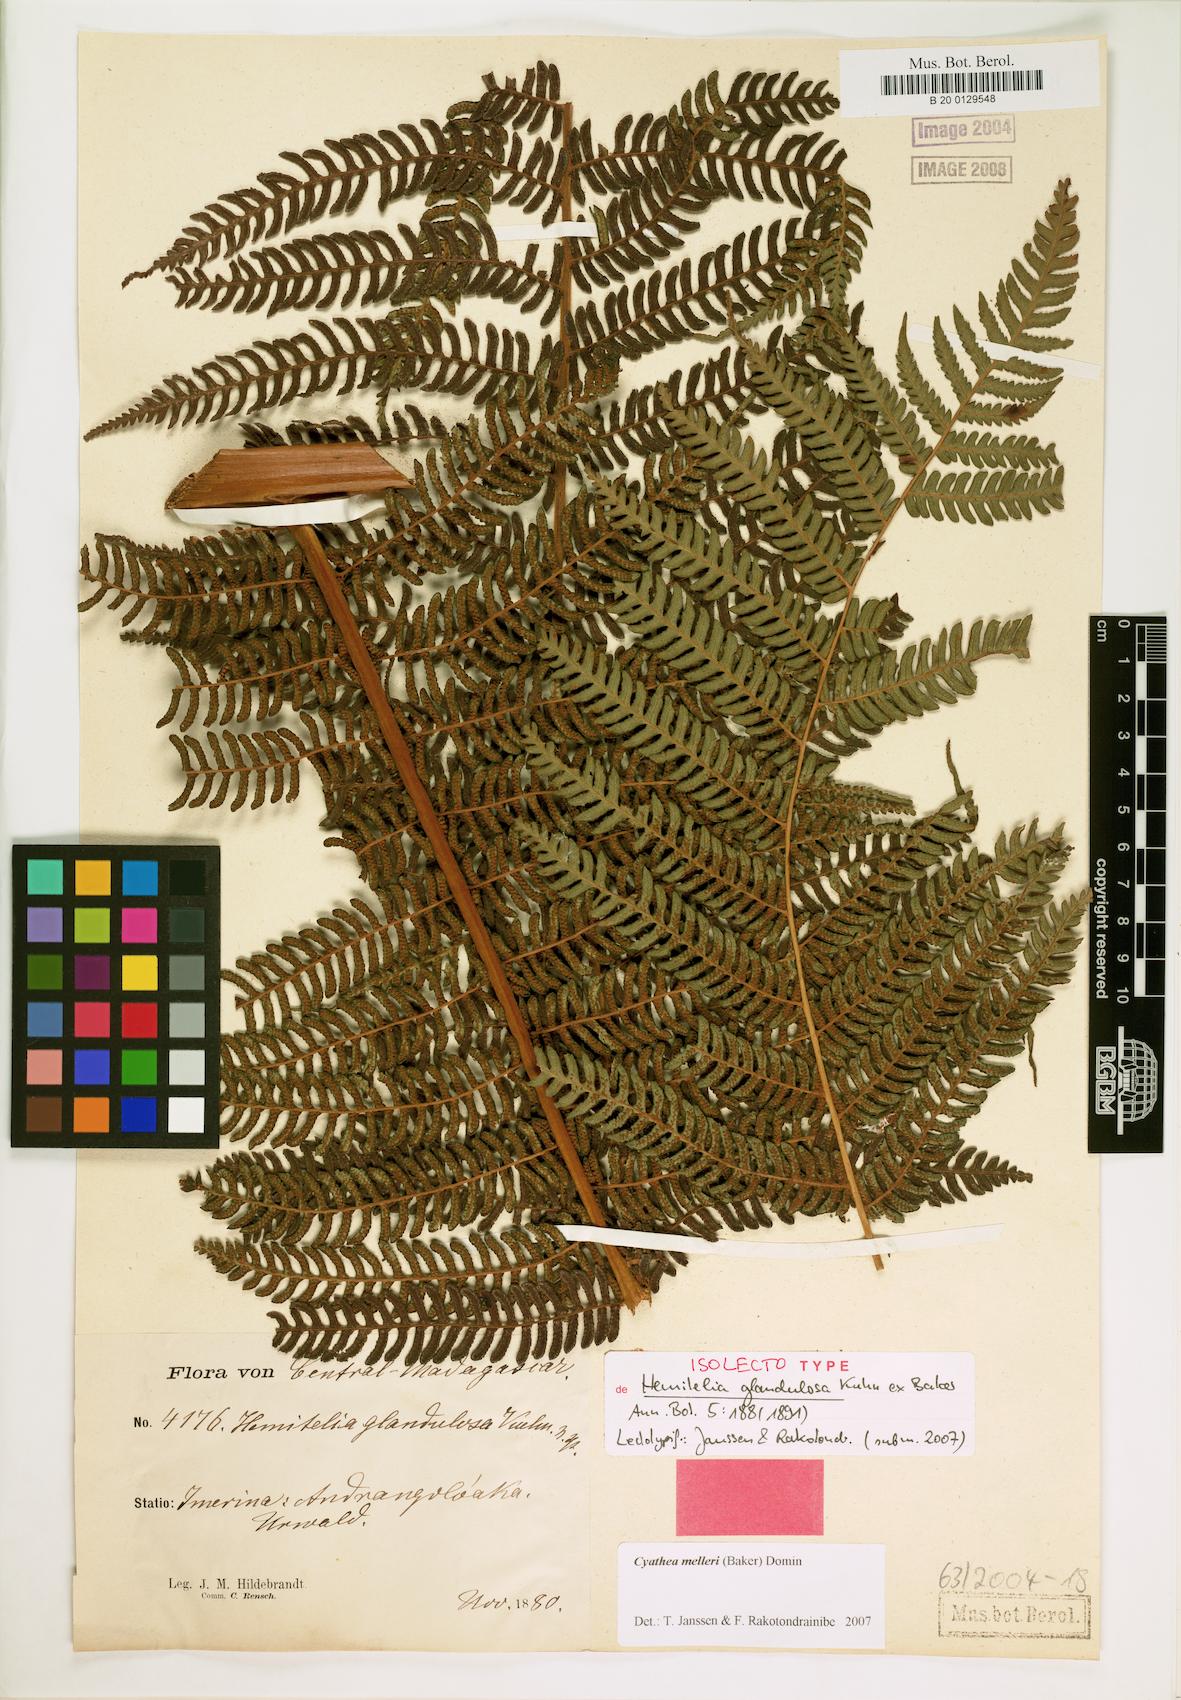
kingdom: Plantae
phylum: Tracheophyta
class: Polypodiopsida
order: Cyatheales
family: Cyatheaceae
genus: Alsophila
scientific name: Alsophila melleri
